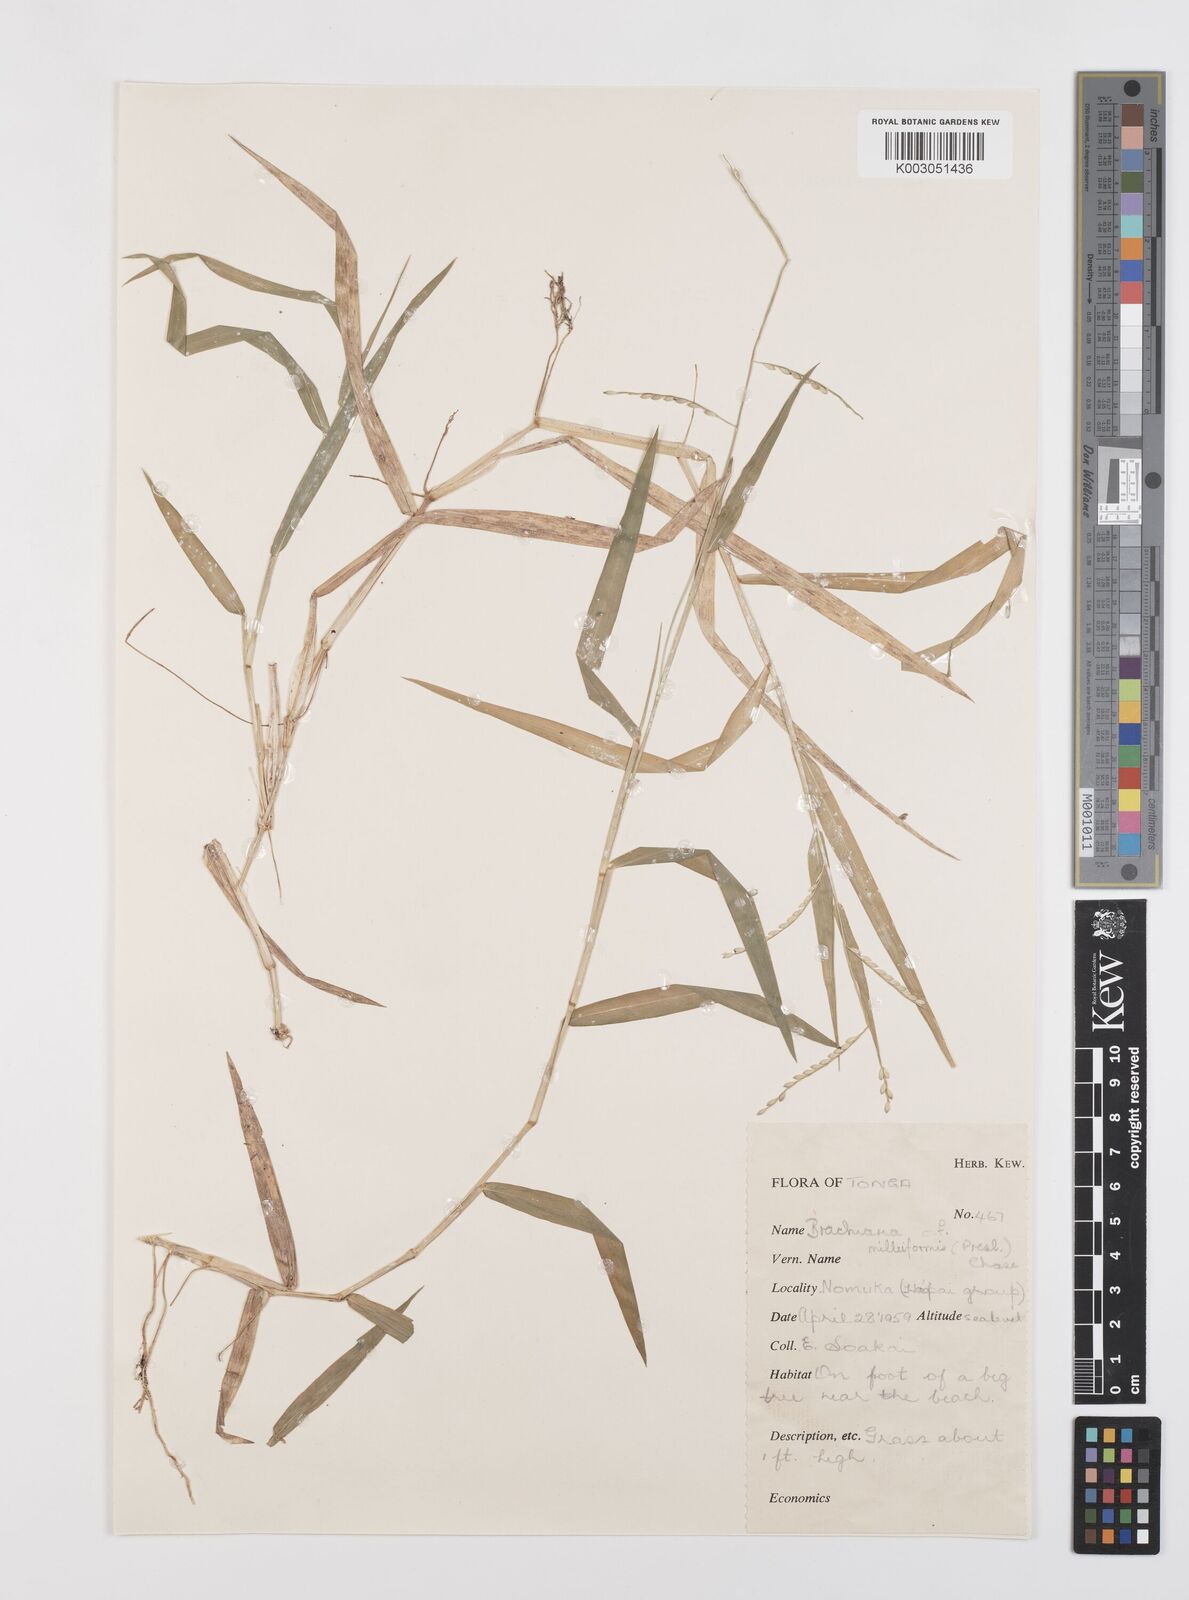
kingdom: Plantae
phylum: Tracheophyta
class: Liliopsida
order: Poales
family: Poaceae
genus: Urochloa
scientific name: Urochloa subquadripara
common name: Armgrass millet
